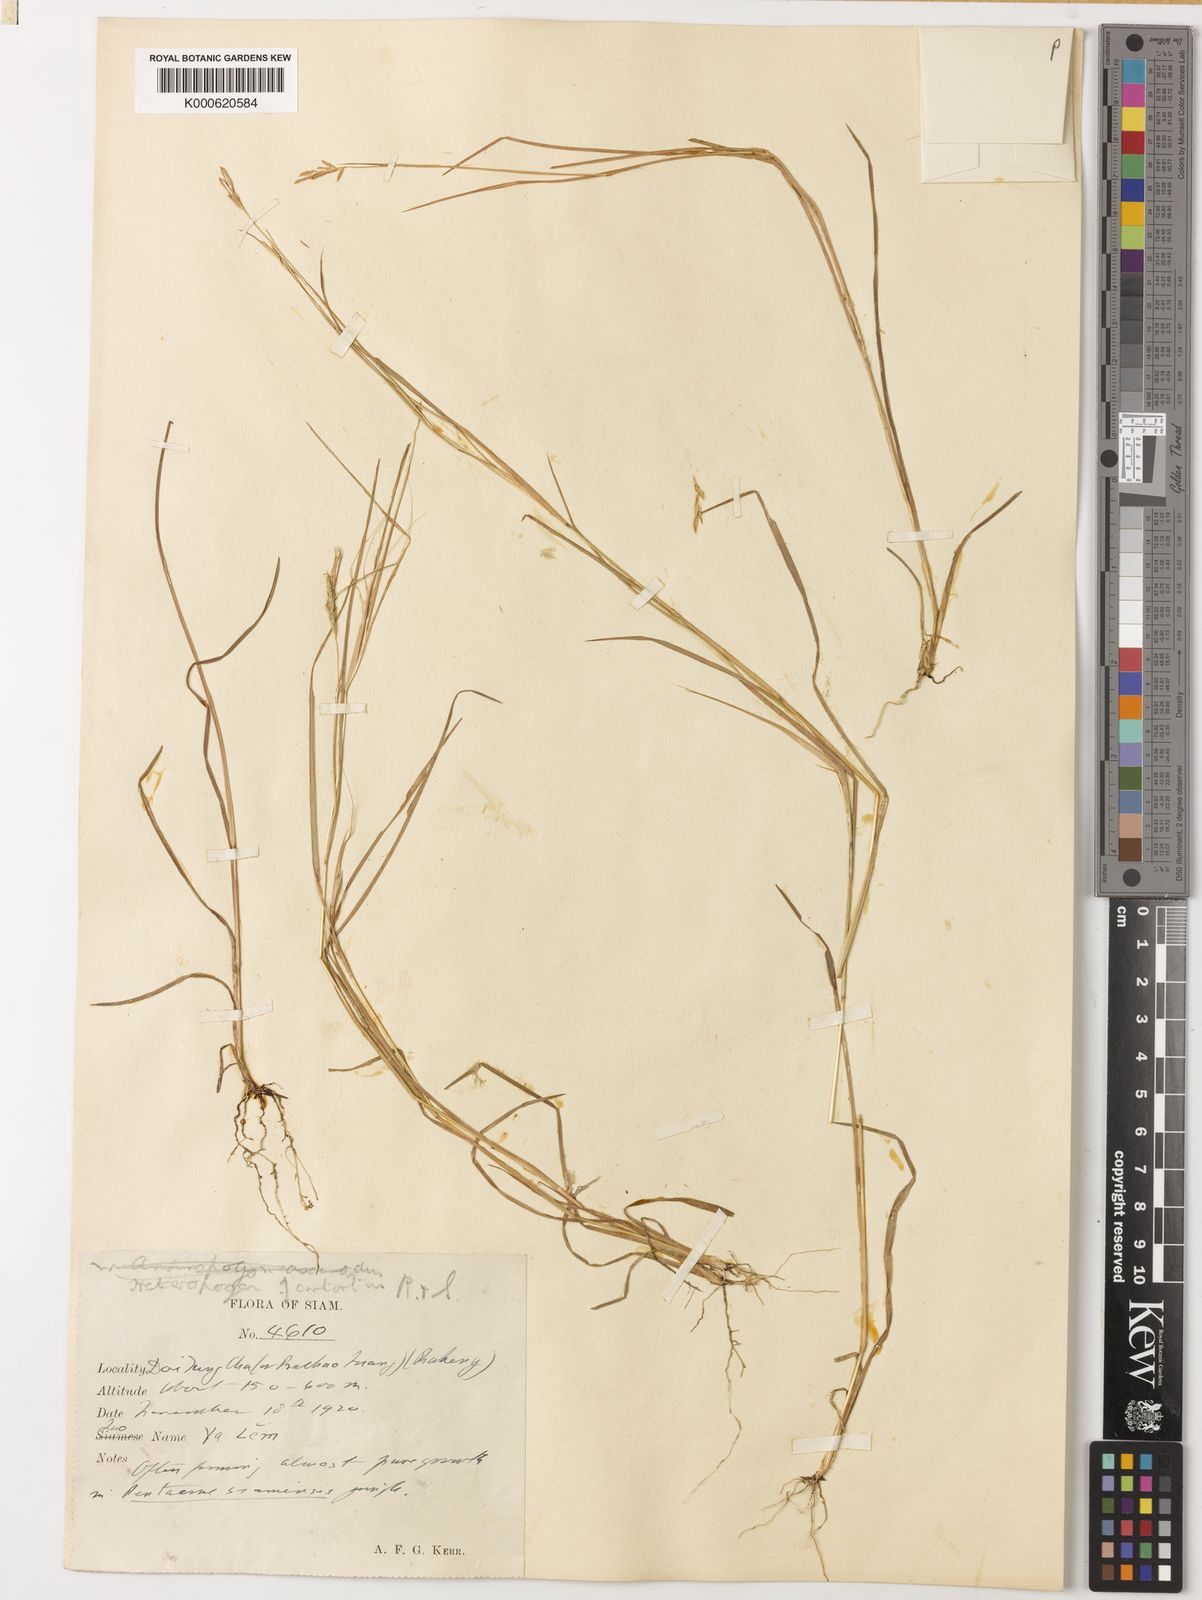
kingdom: Plantae
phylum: Tracheophyta
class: Liliopsida
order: Poales
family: Poaceae
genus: Heteropogon
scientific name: Heteropogon contortus
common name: Tanglehead
